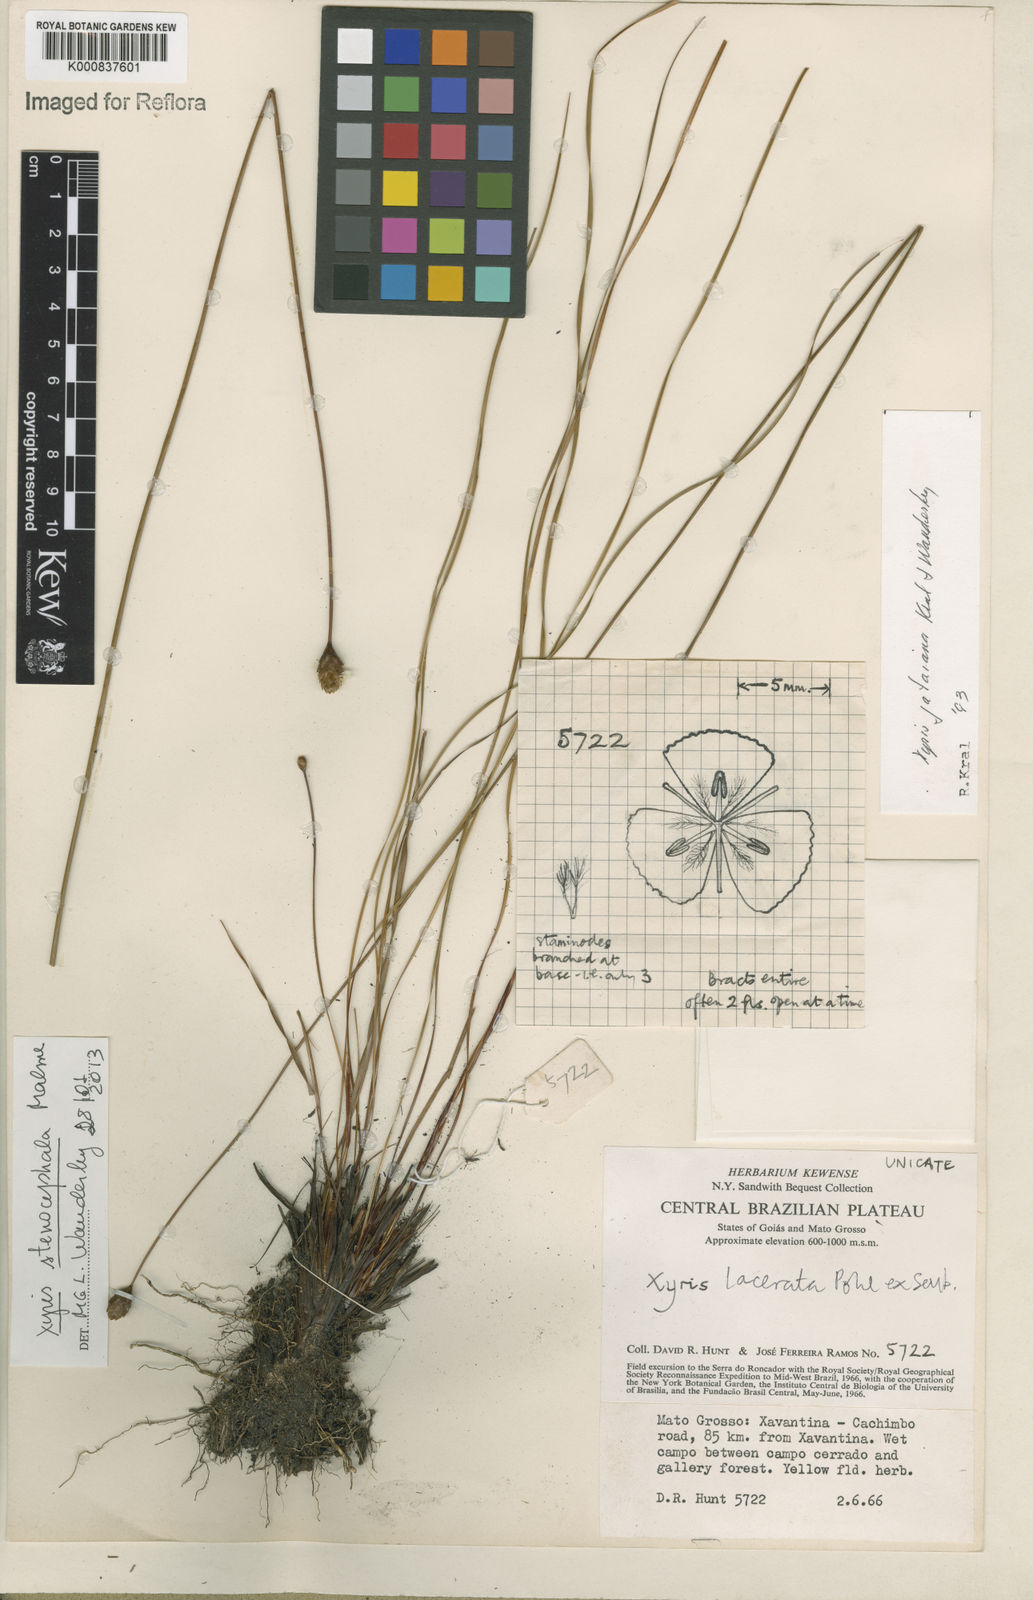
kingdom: Plantae
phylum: Tracheophyta
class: Liliopsida
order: Poales
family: Xyridaceae
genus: Xyris
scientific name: Xyris stenocephala
